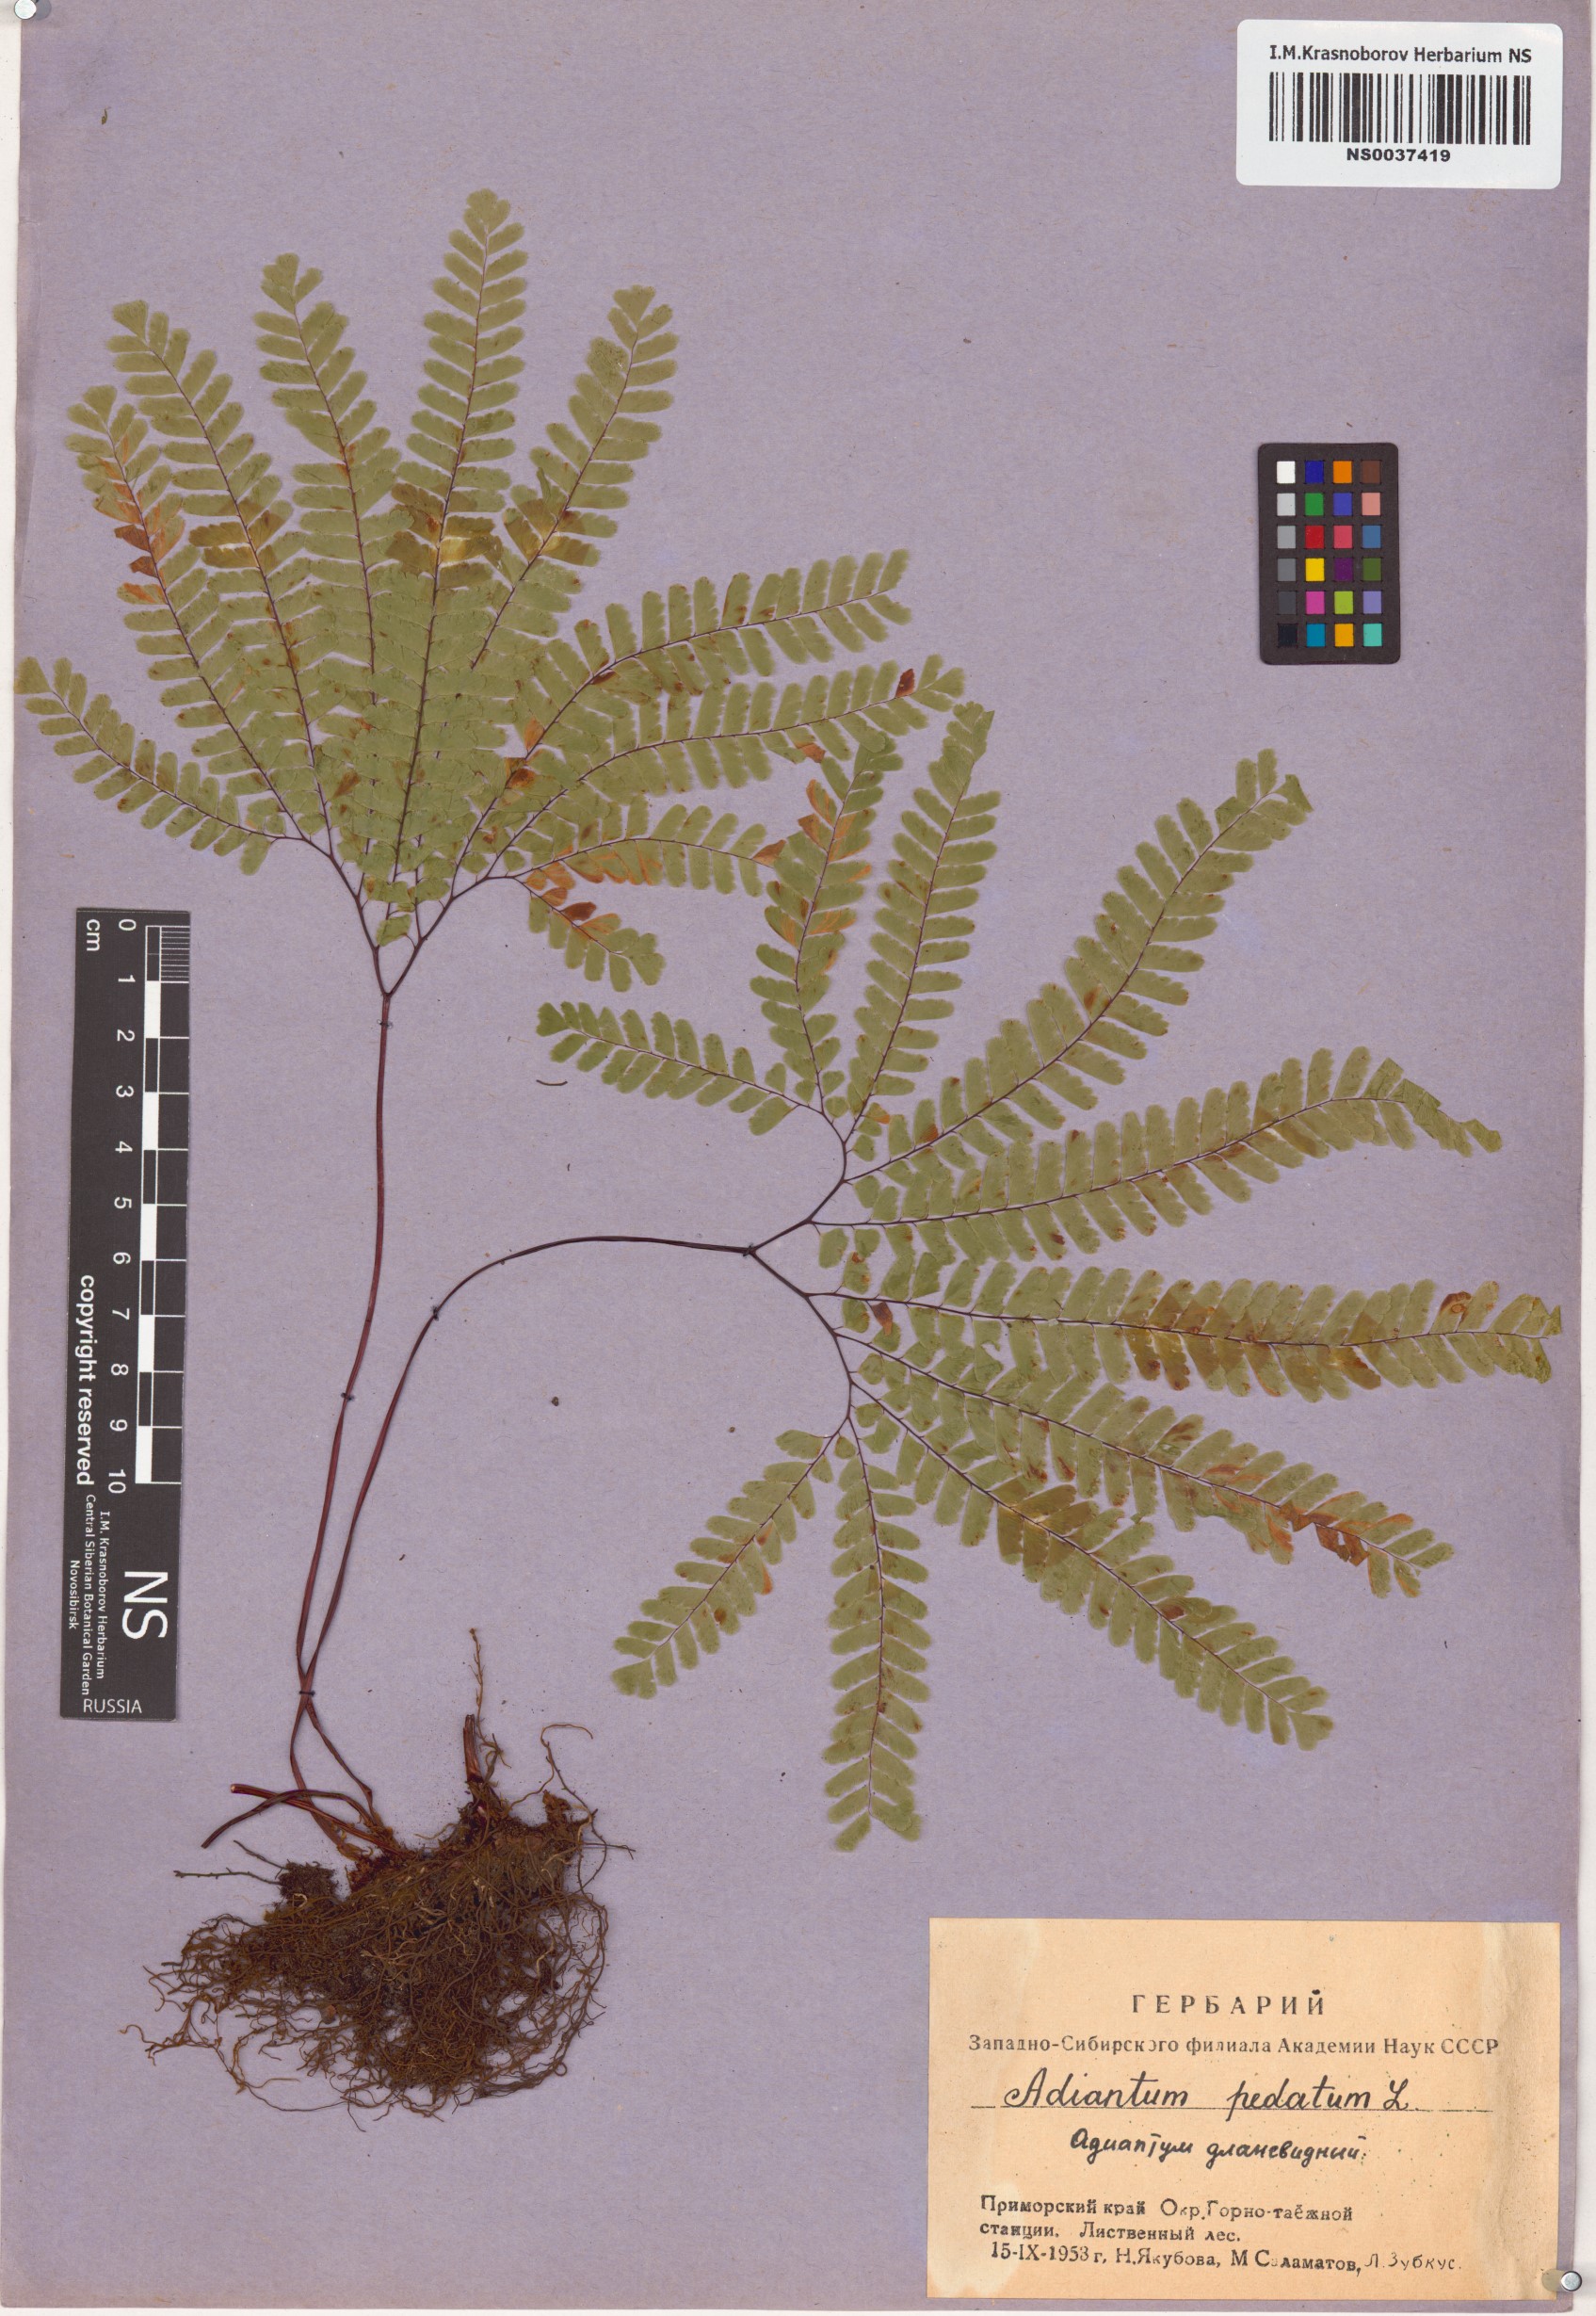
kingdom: Plantae
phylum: Tracheophyta
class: Polypodiopsida
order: Polypodiales
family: Pteridaceae
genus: Adiantum
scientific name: Adiantum pedatum
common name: Five-finger fern
